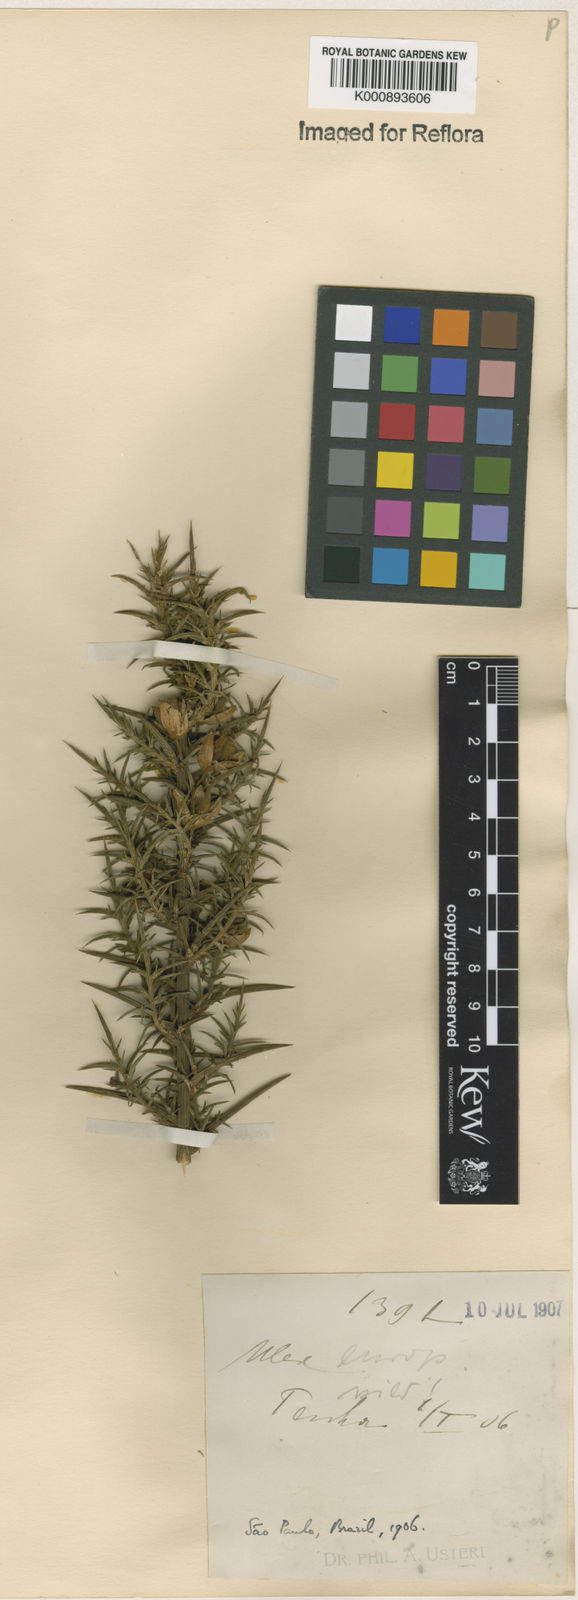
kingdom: Plantae
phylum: Tracheophyta
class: Magnoliopsida
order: Fabales
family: Fabaceae
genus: Ulex
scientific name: Ulex europaeus
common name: Common gorse
